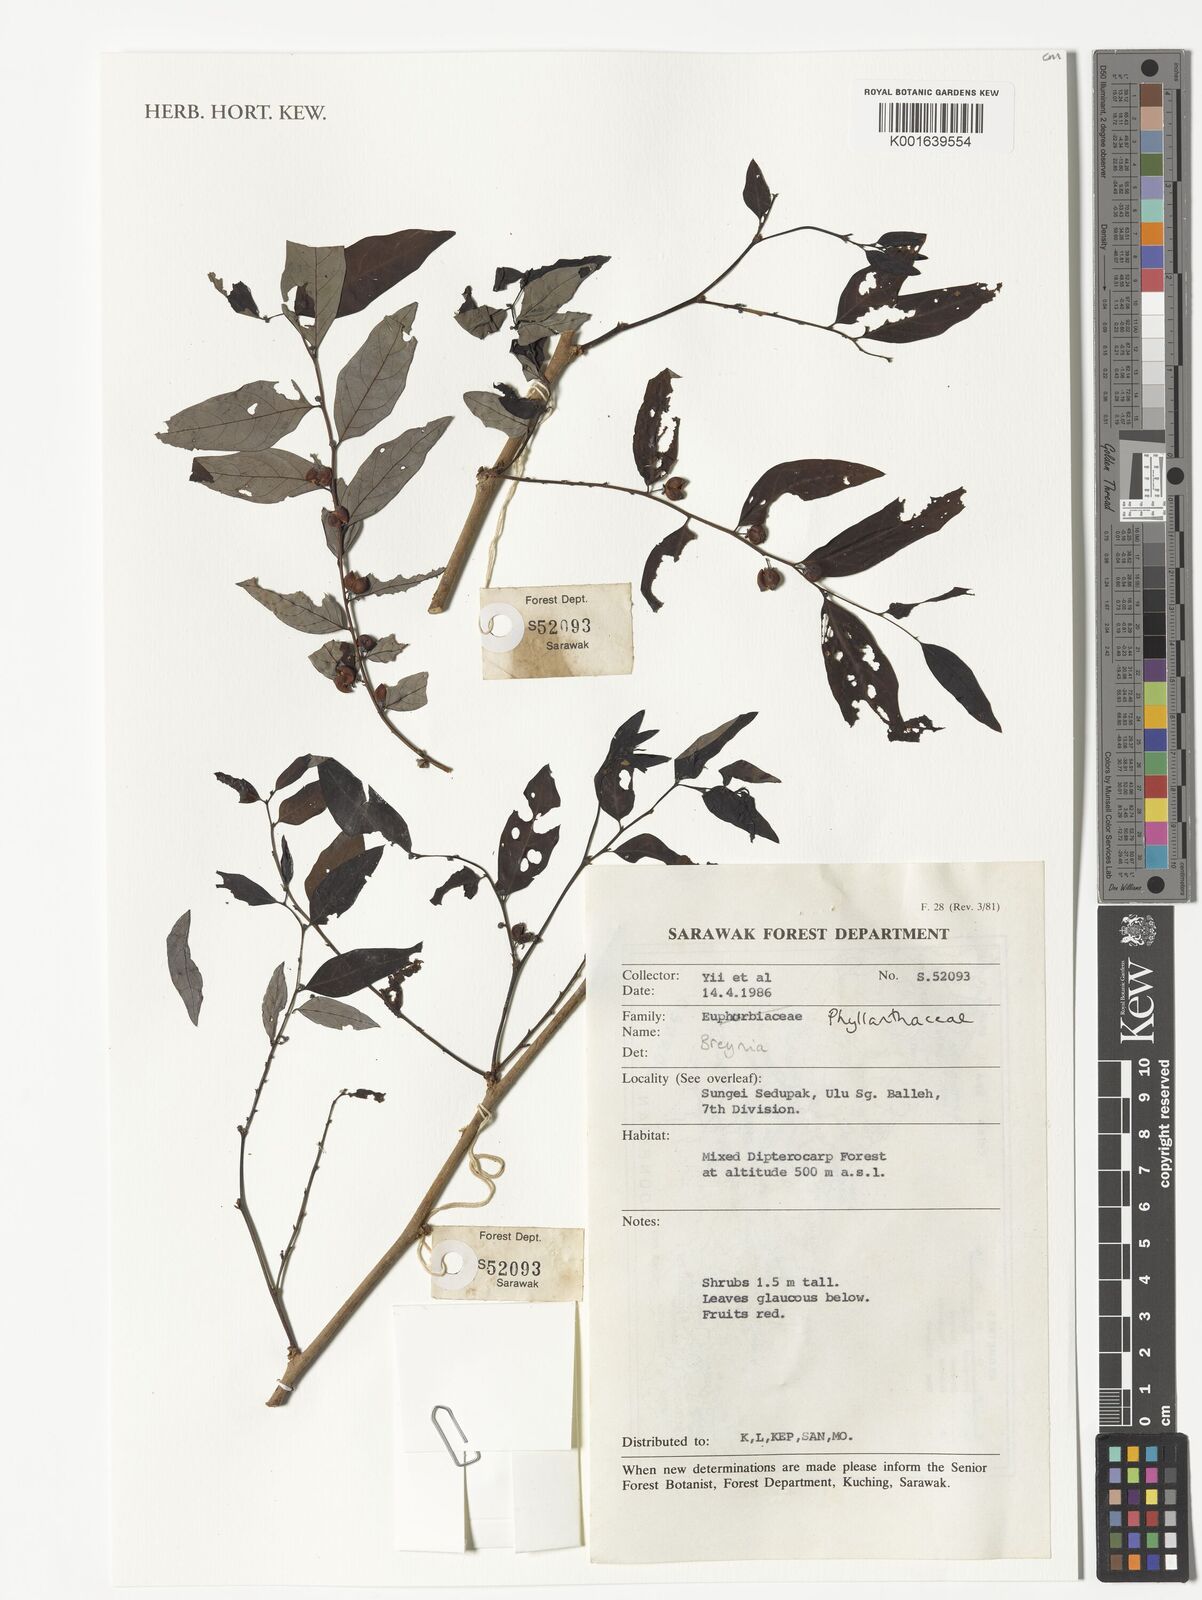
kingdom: Plantae
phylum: Tracheophyta
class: Magnoliopsida
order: Malpighiales
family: Phyllanthaceae
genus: Breynia
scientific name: Breynia
